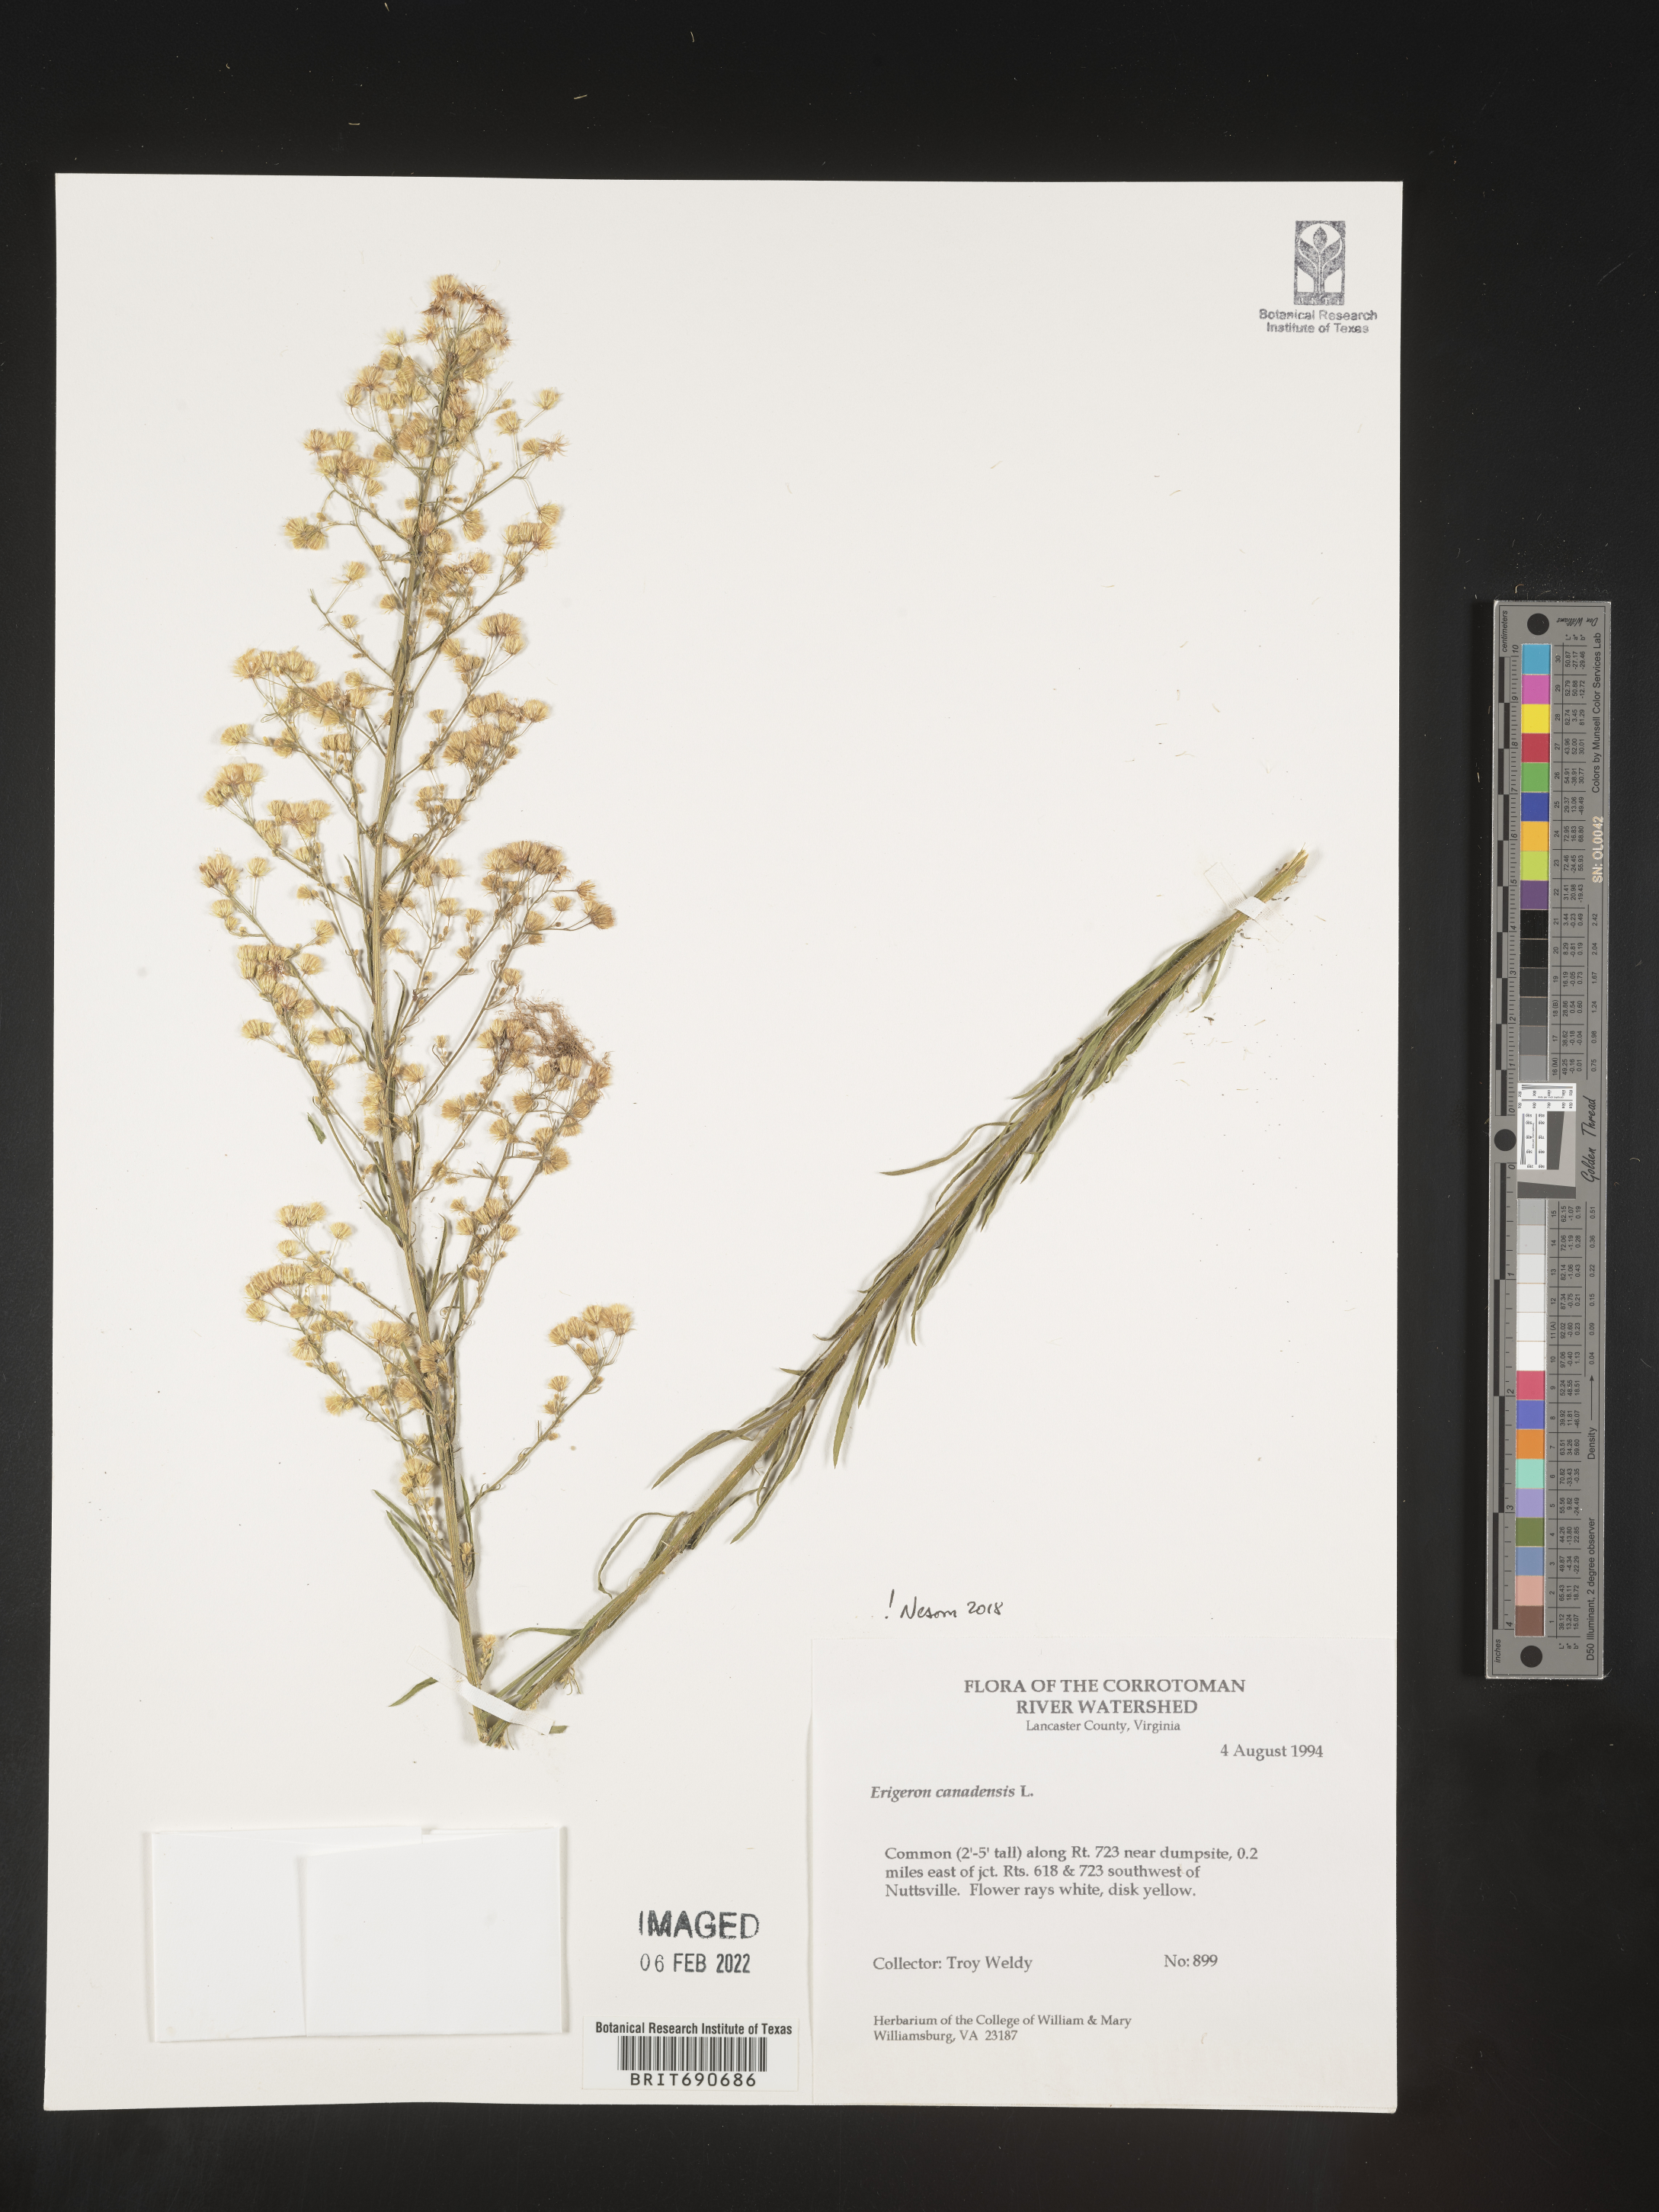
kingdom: Plantae
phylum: Tracheophyta
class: Magnoliopsida
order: Asterales
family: Asteraceae
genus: Erigeron
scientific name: Erigeron canadensis
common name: Canadian fleabane
